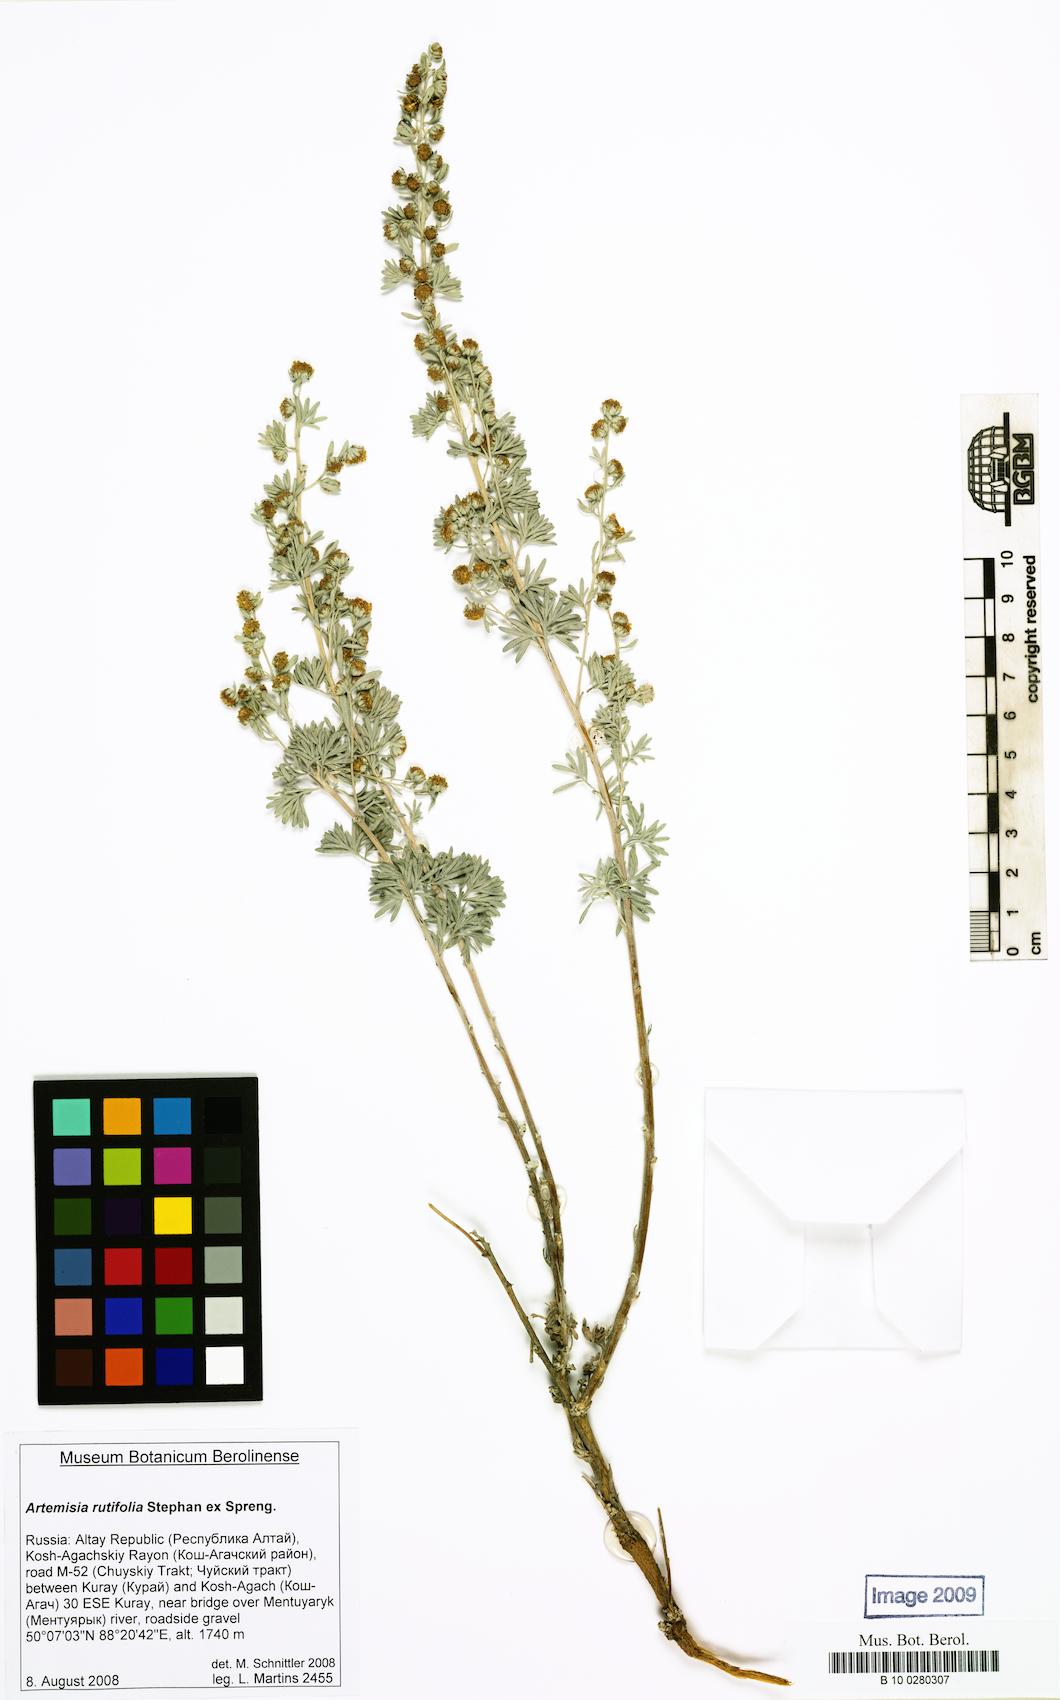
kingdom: Plantae
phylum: Tracheophyta
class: Magnoliopsida
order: Asterales
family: Asteraceae
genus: Artemisia
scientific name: Artemisia rutifolia
